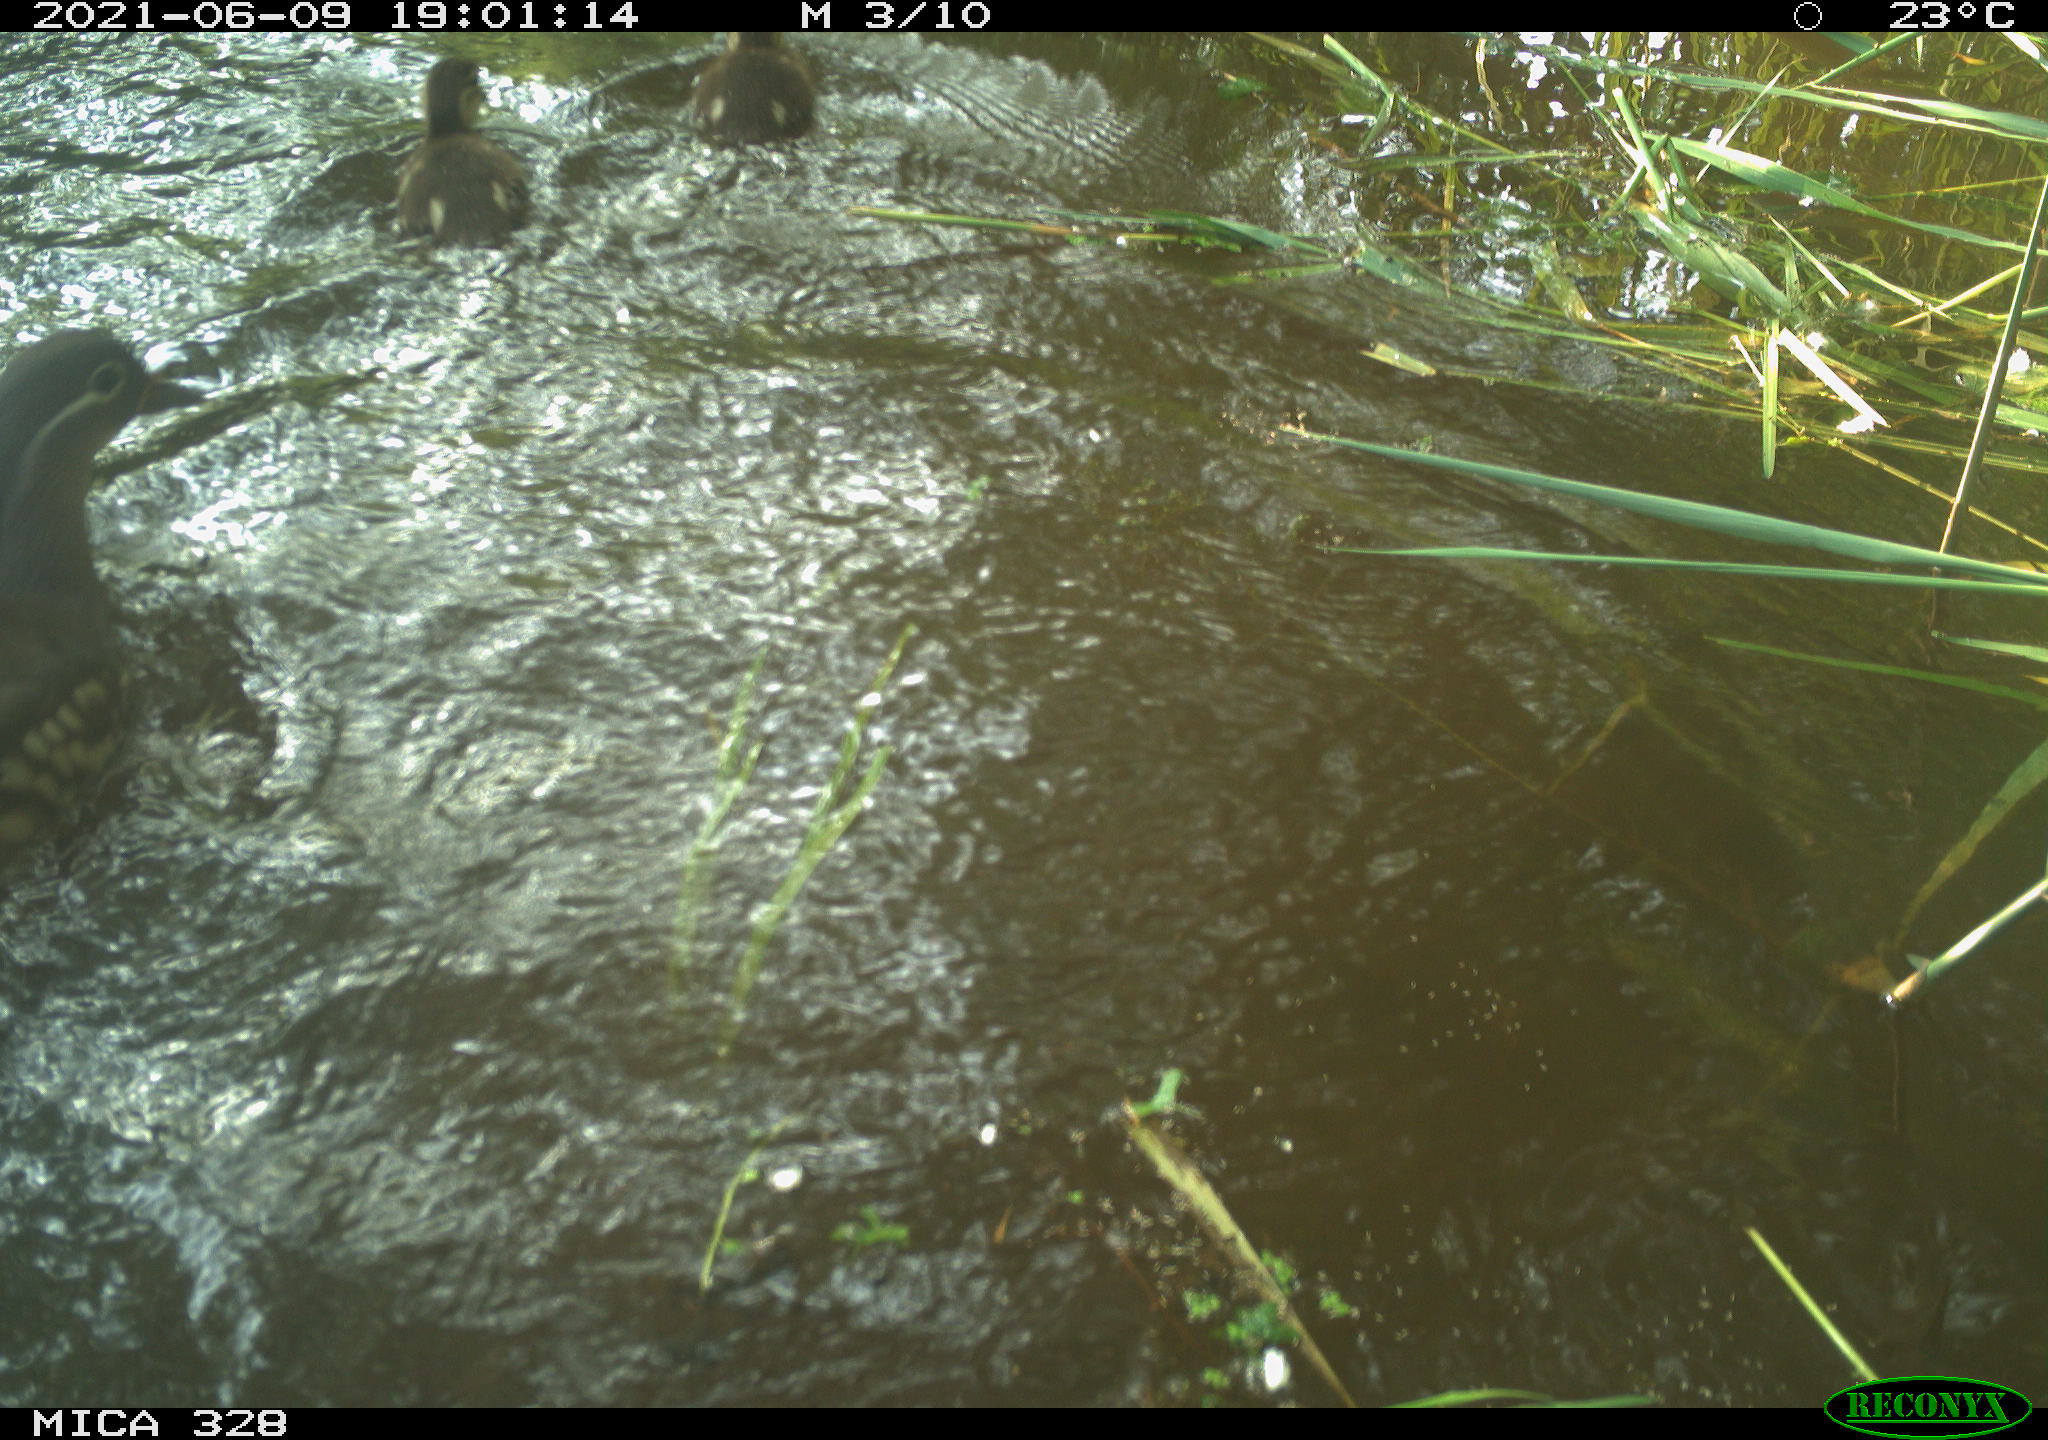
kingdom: Animalia
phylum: Chordata
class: Aves
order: Anseriformes
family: Anatidae
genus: Aix
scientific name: Aix galericulata
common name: Mandarin duck
